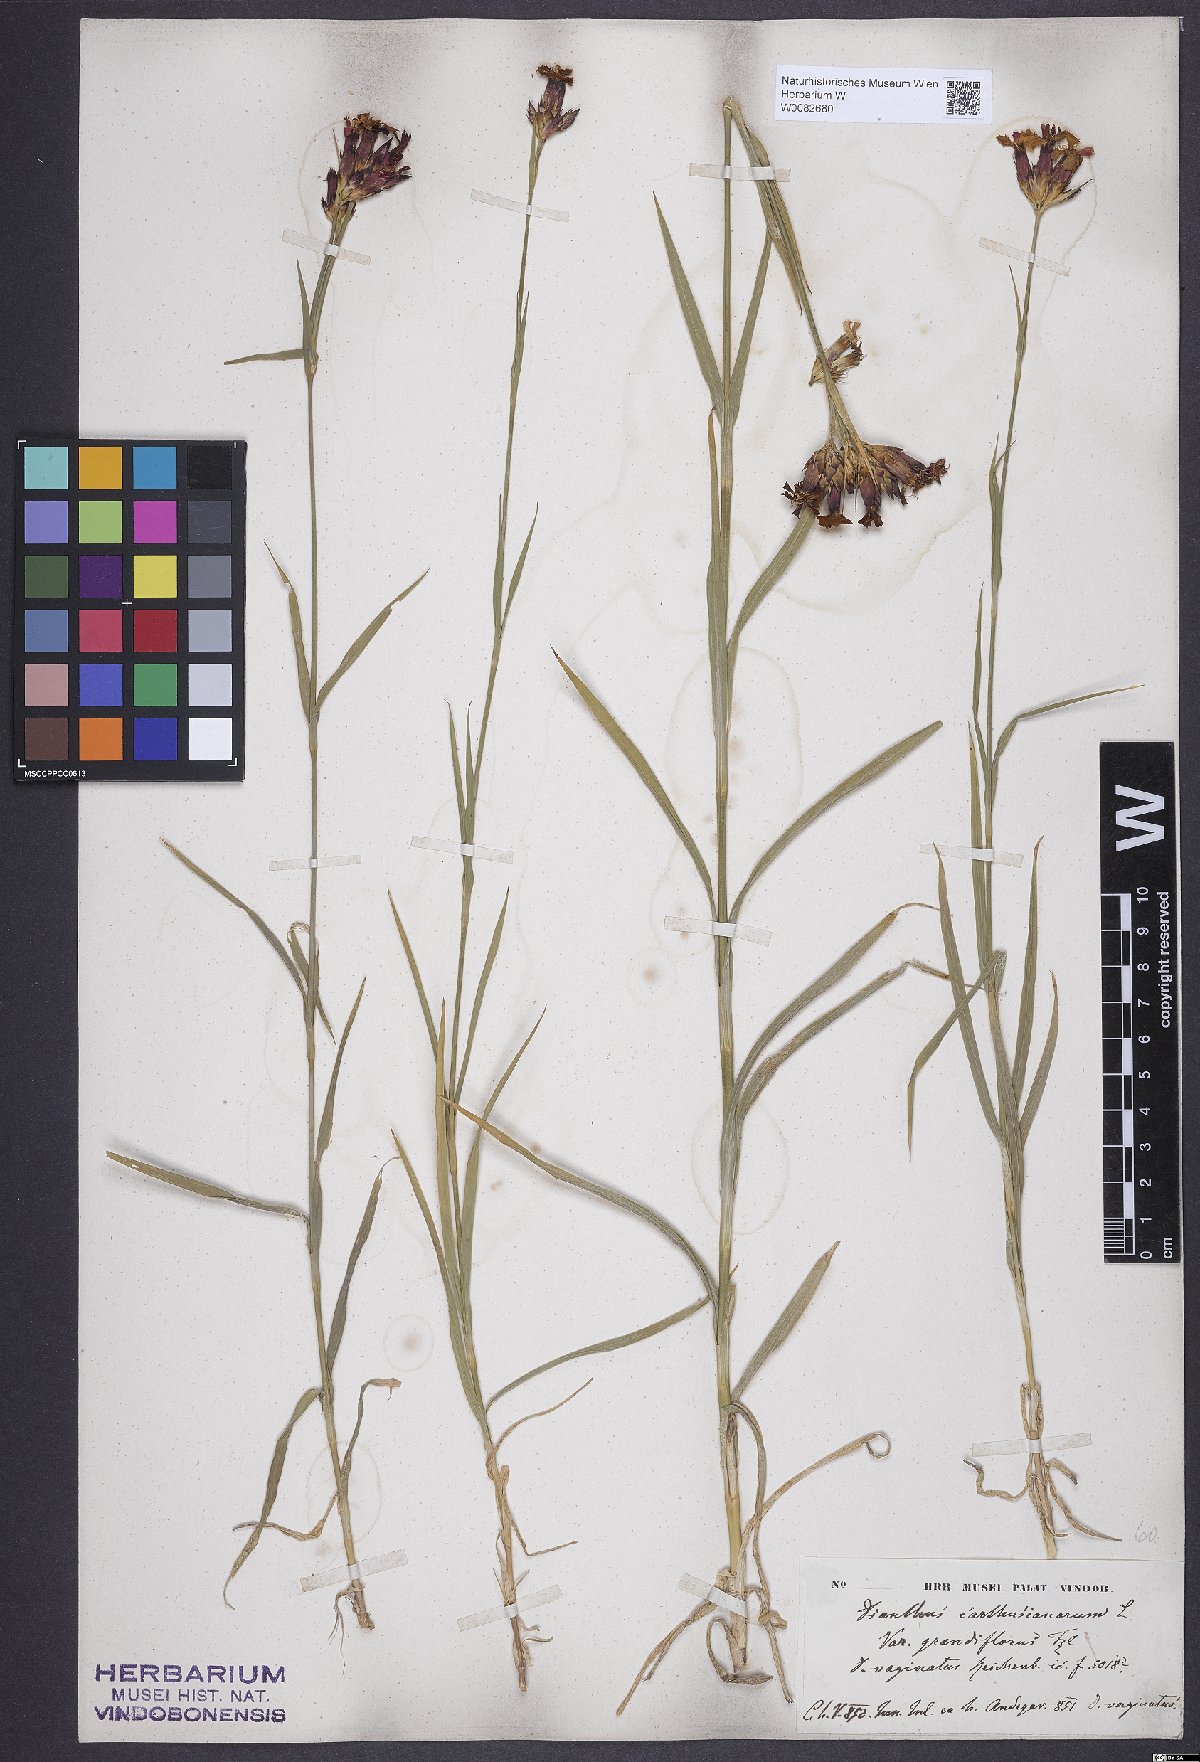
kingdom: Plantae
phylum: Tracheophyta
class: Magnoliopsida
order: Caryophyllales
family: Caryophyllaceae
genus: Dianthus
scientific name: Dianthus carthusianorum
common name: Carthusian pink
